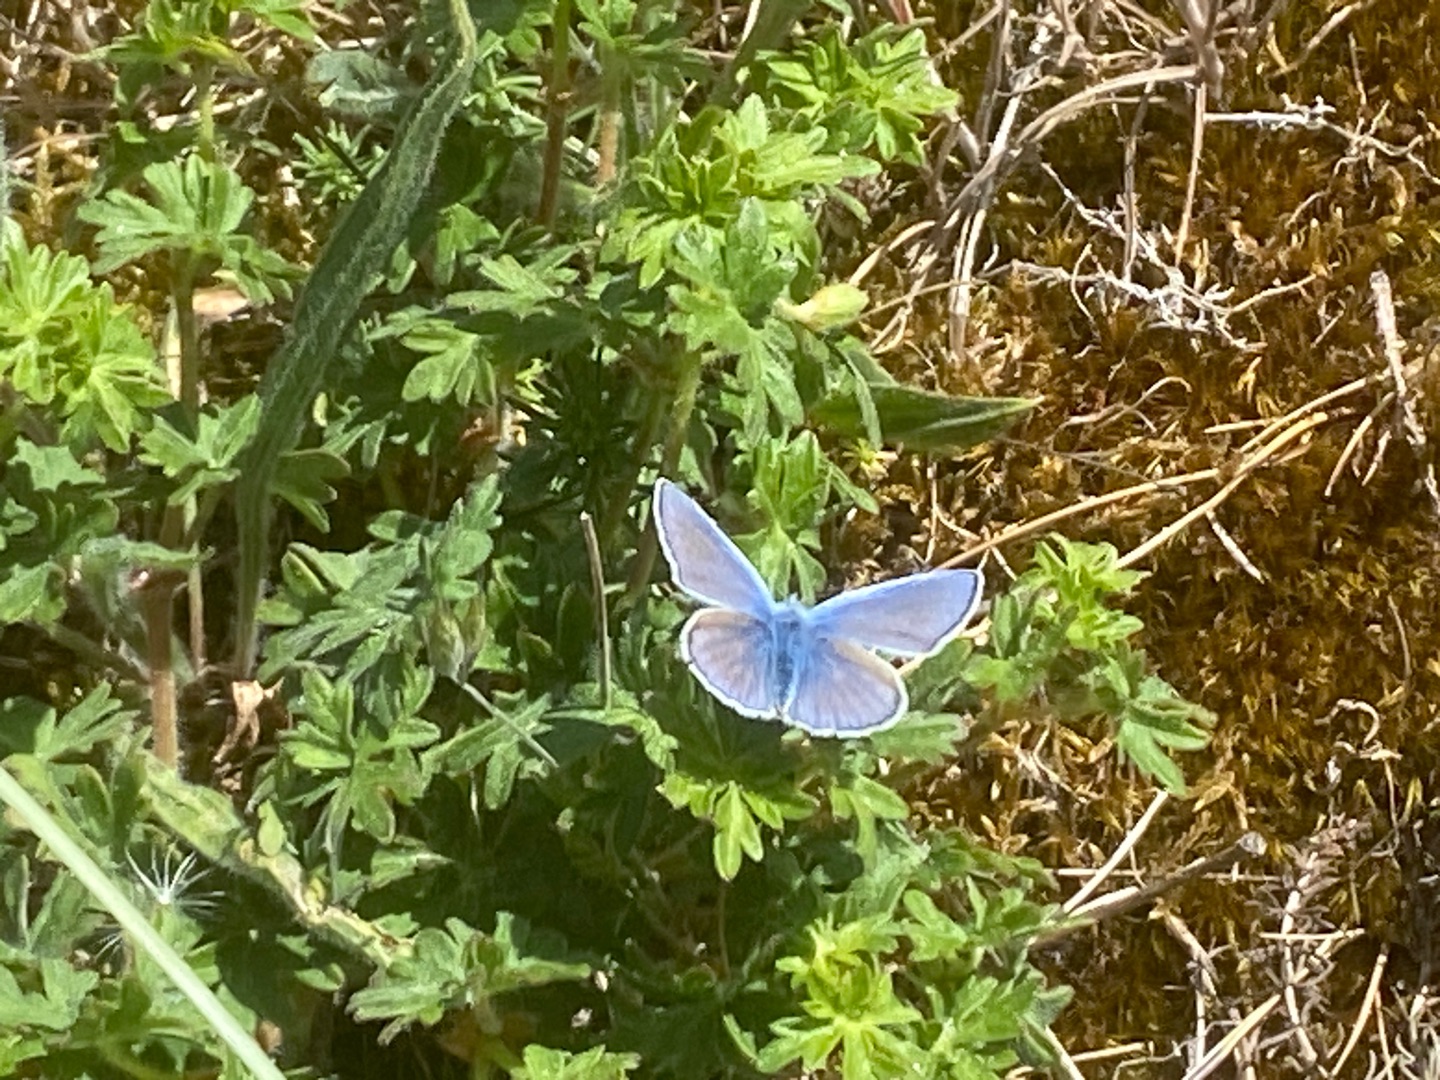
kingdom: Animalia
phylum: Arthropoda
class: Insecta
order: Lepidoptera
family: Lycaenidae
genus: Polyommatus
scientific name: Polyommatus icarus
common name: Almindelig blåfugl
